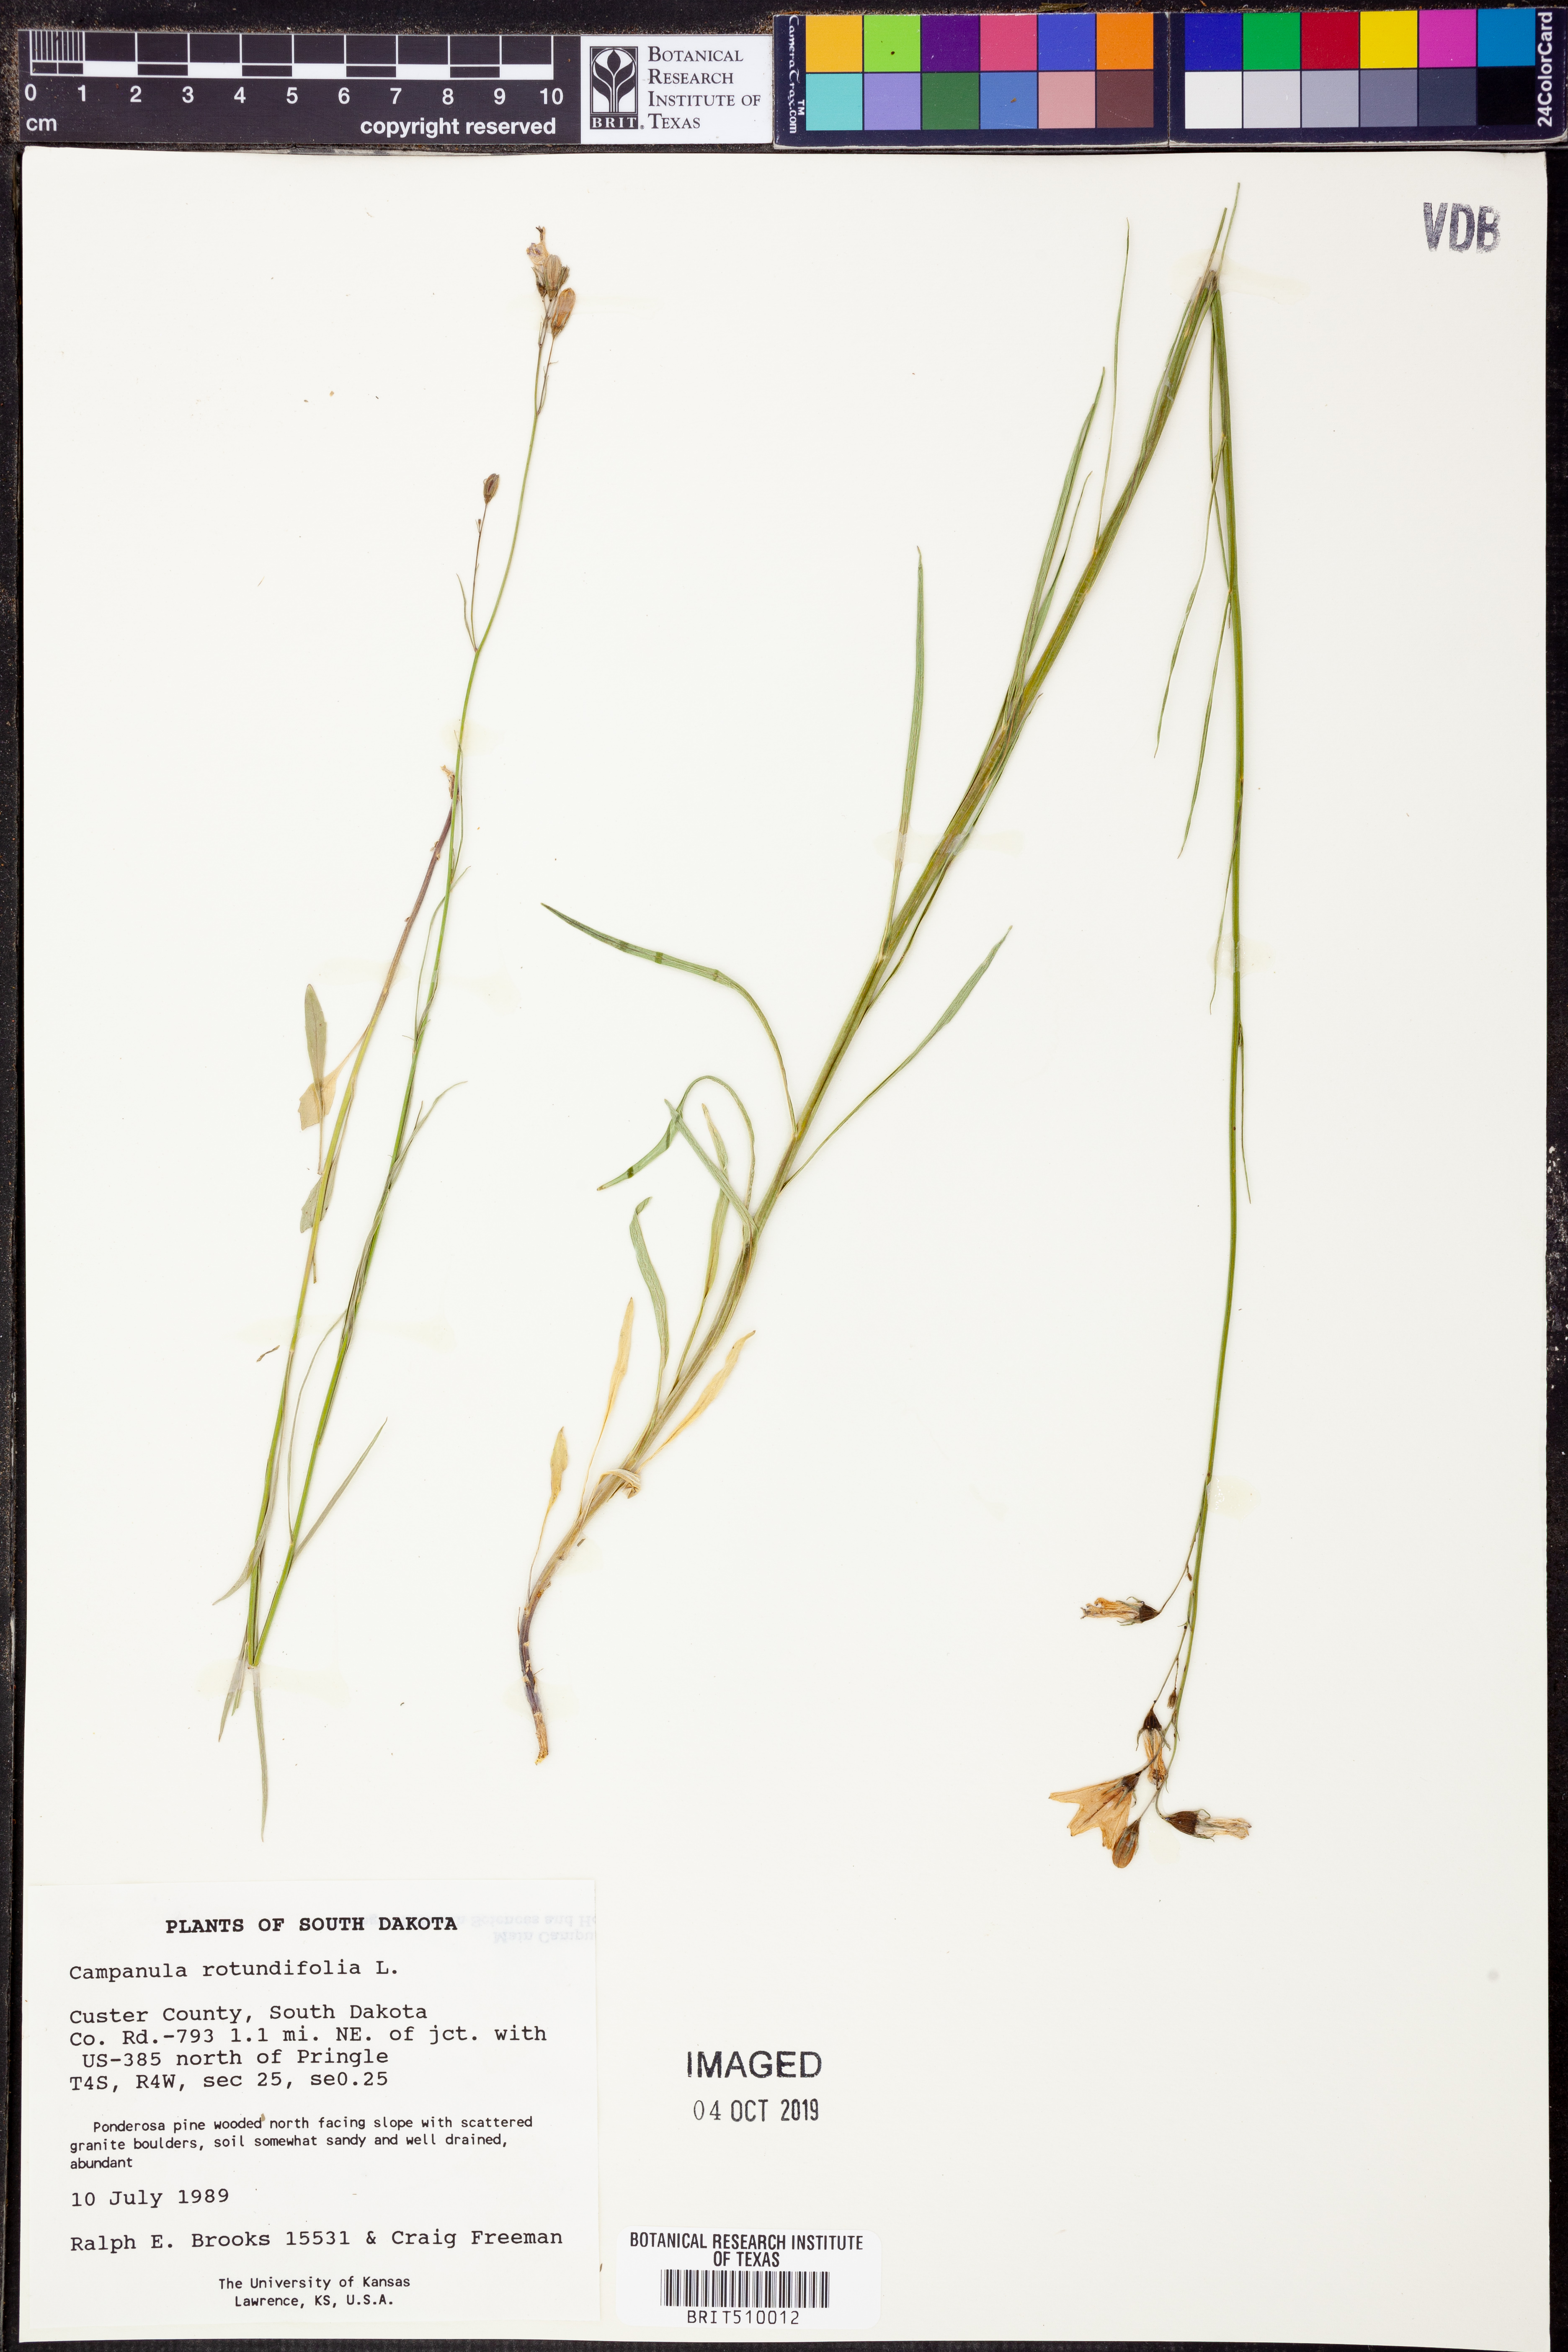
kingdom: Plantae
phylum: Tracheophyta
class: Magnoliopsida
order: Asterales
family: Campanulaceae
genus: Campanula
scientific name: Campanula rotundifolia
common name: Harebell
